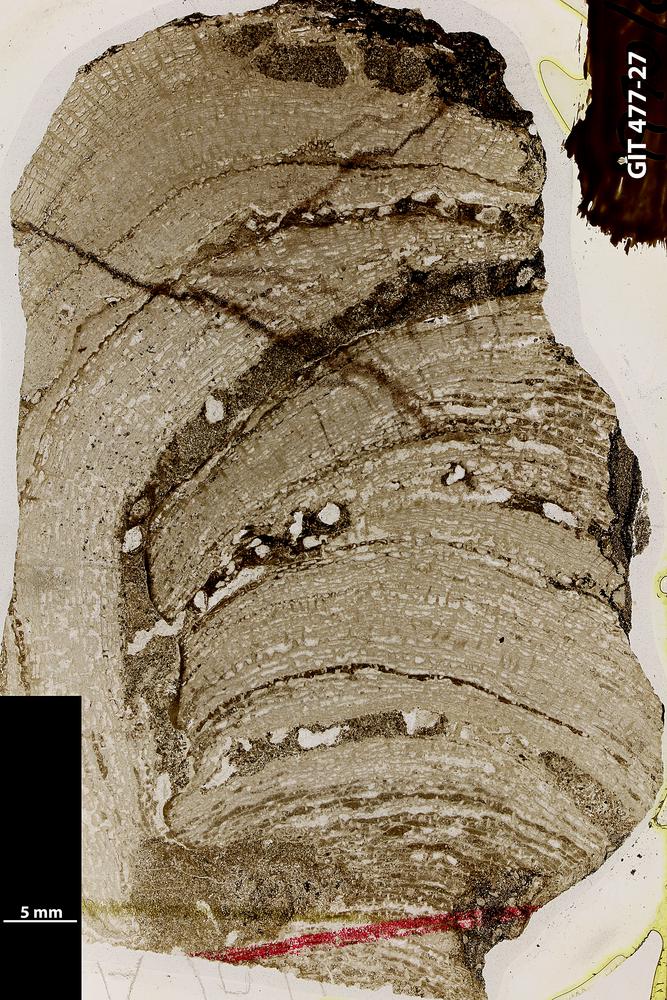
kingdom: Animalia
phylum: Porifera
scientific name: Porifera
